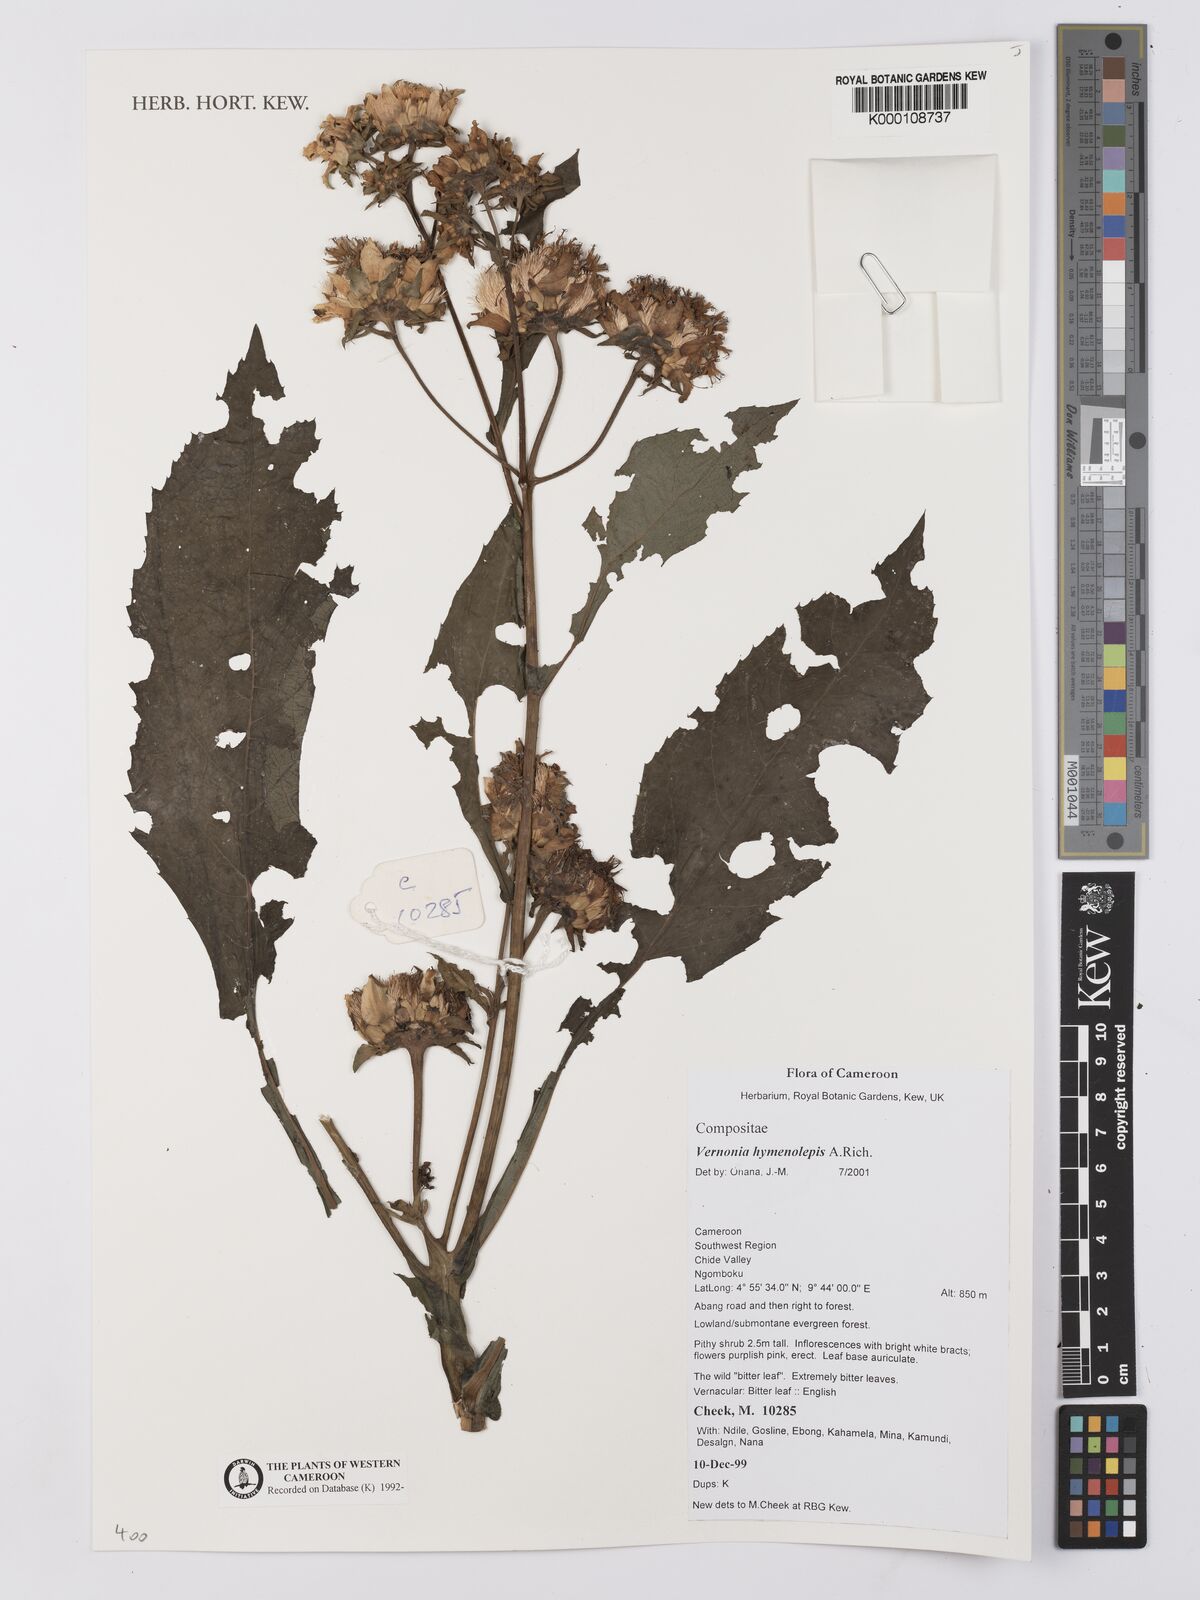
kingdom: Plantae
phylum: Tracheophyta
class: Magnoliopsida
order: Asterales
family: Asteraceae
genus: Baccharoides
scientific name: Baccharoides hymenolepis
